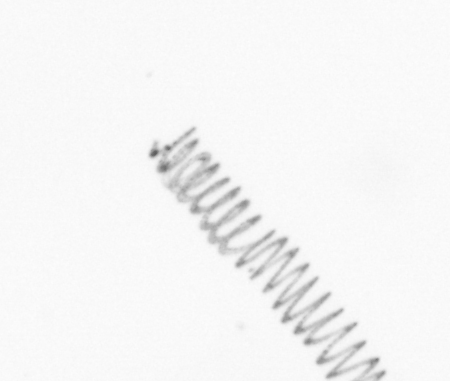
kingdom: Chromista
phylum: Ochrophyta
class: Bacillariophyceae
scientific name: Bacillariophyceae
